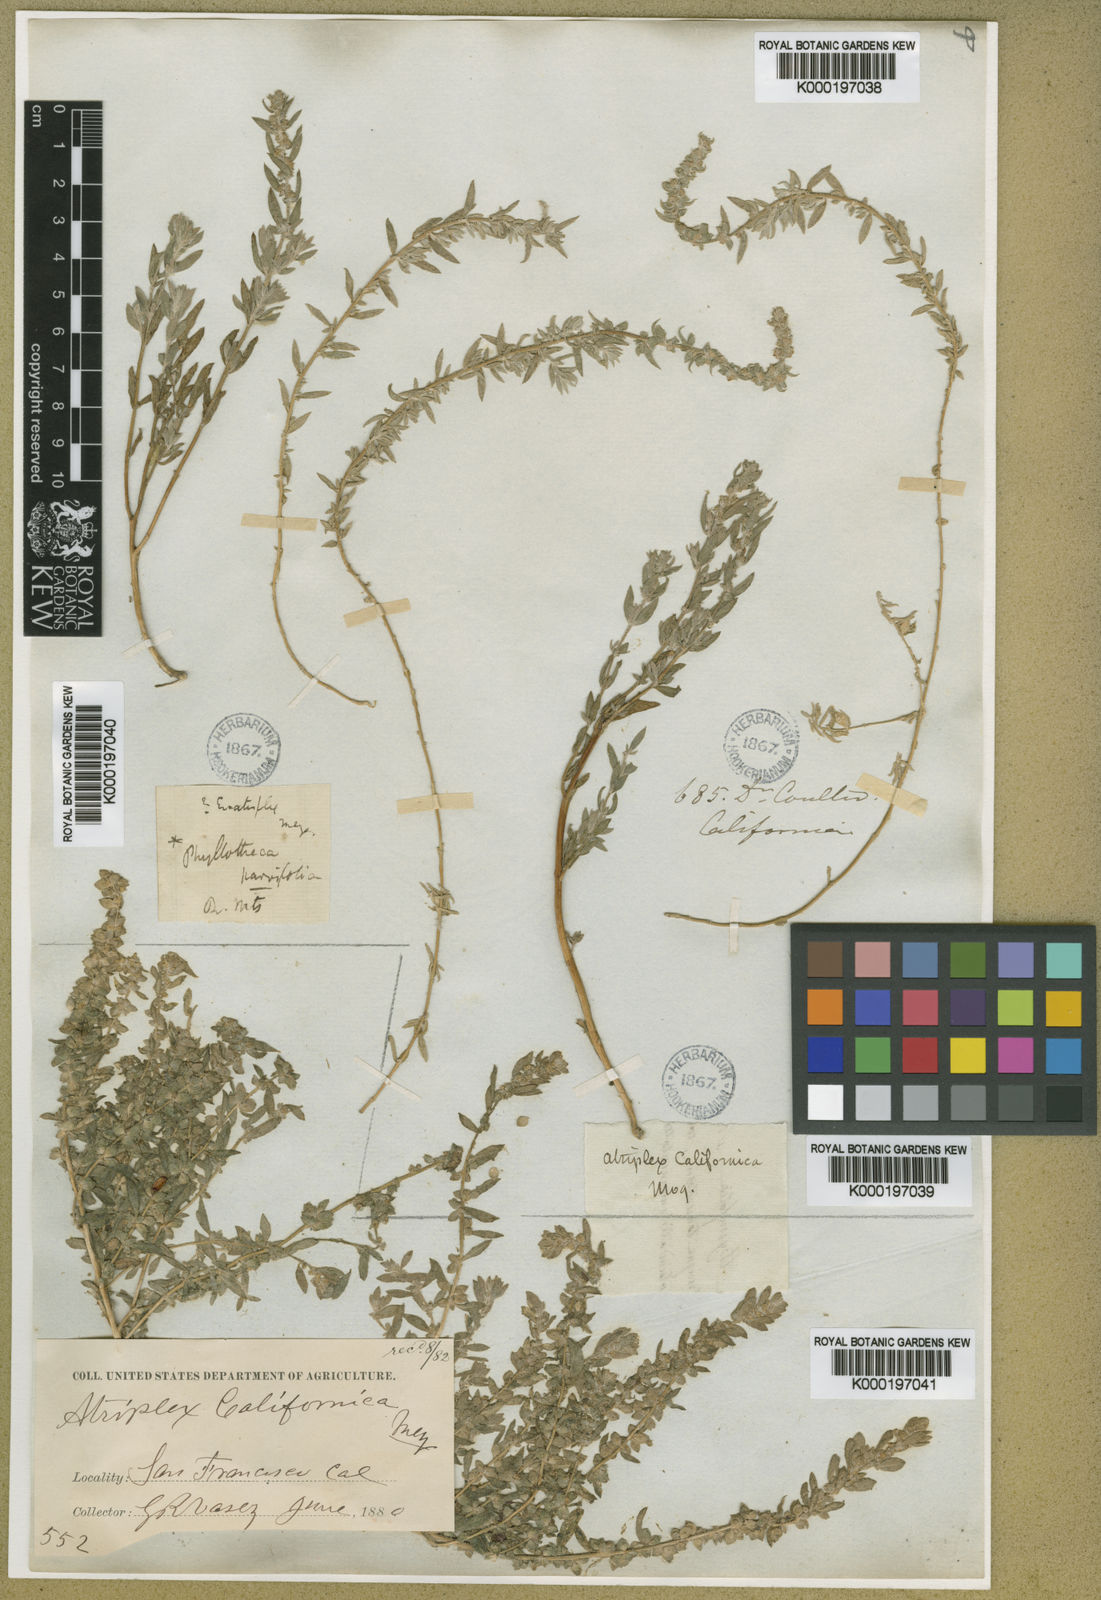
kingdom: Plantae
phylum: Tracheophyta
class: Magnoliopsida
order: Caryophyllales
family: Amaranthaceae
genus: Extriplex
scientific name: Extriplex californica
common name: California saltbush
